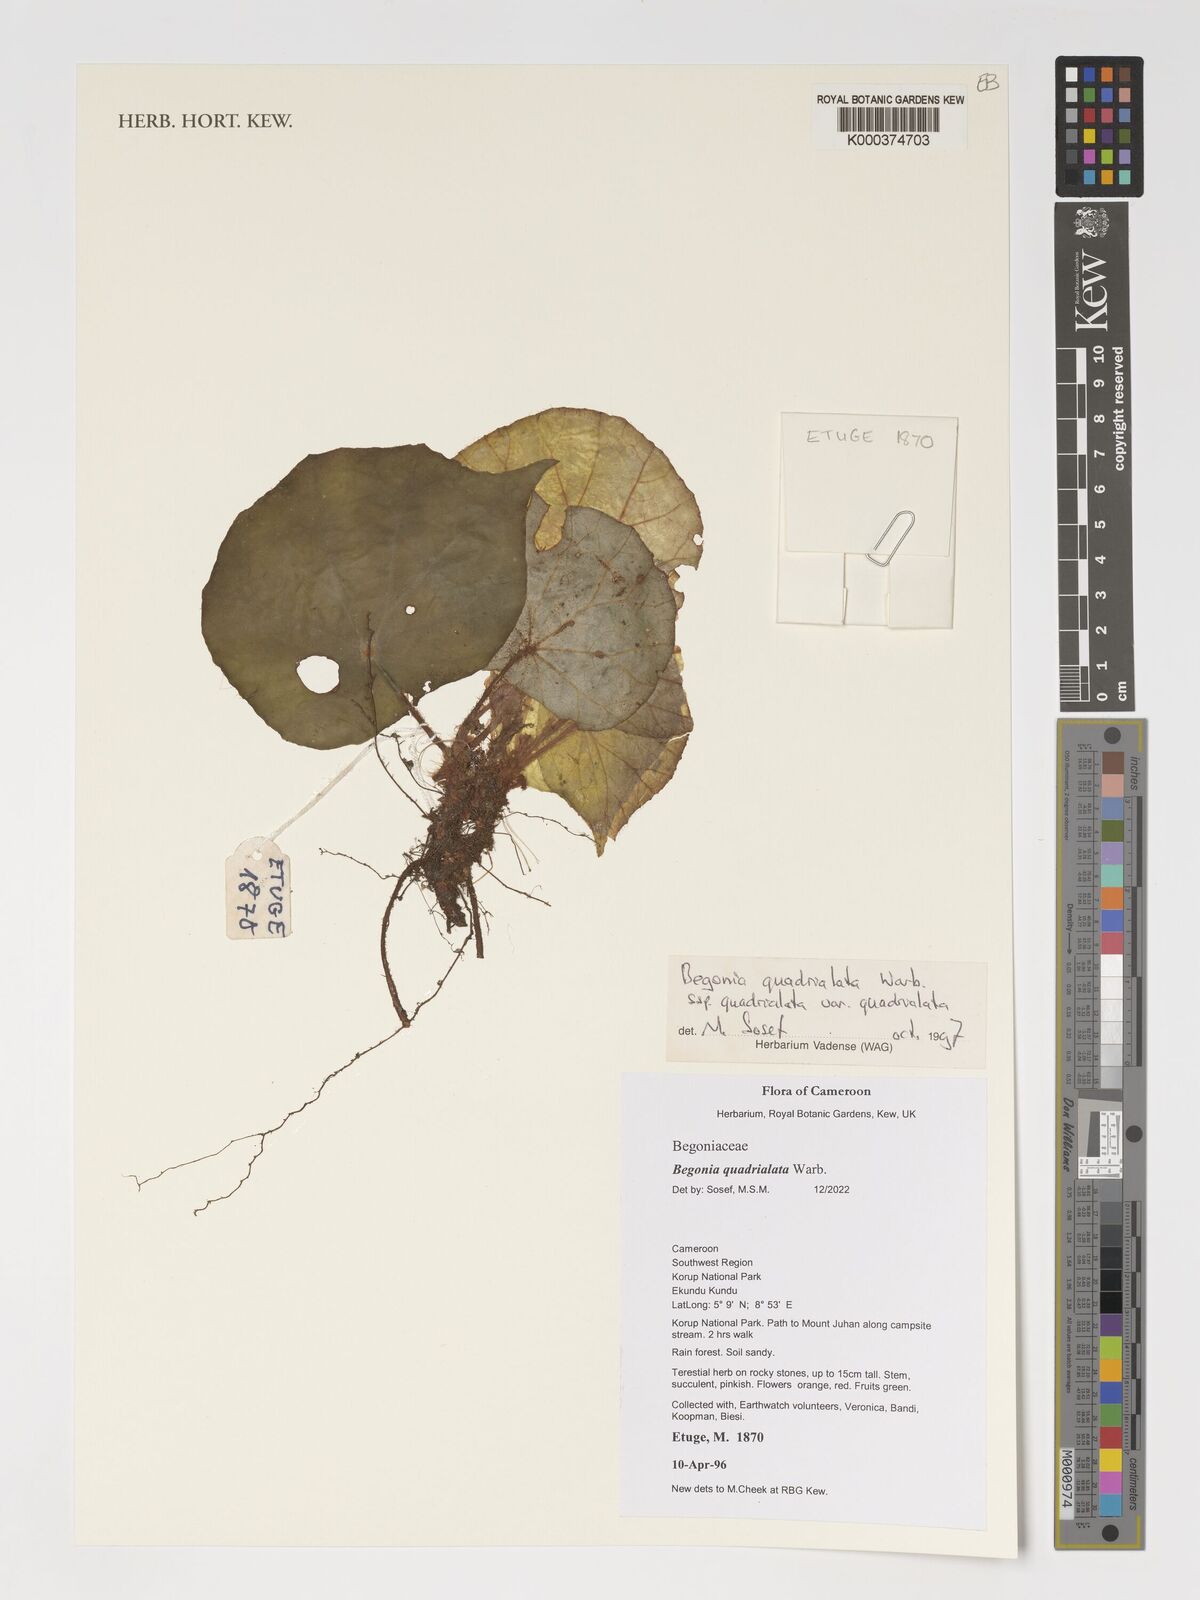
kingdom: Plantae
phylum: Tracheophyta
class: Magnoliopsida
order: Cucurbitales
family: Begoniaceae
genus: Begonia
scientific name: Begonia quadrialata
